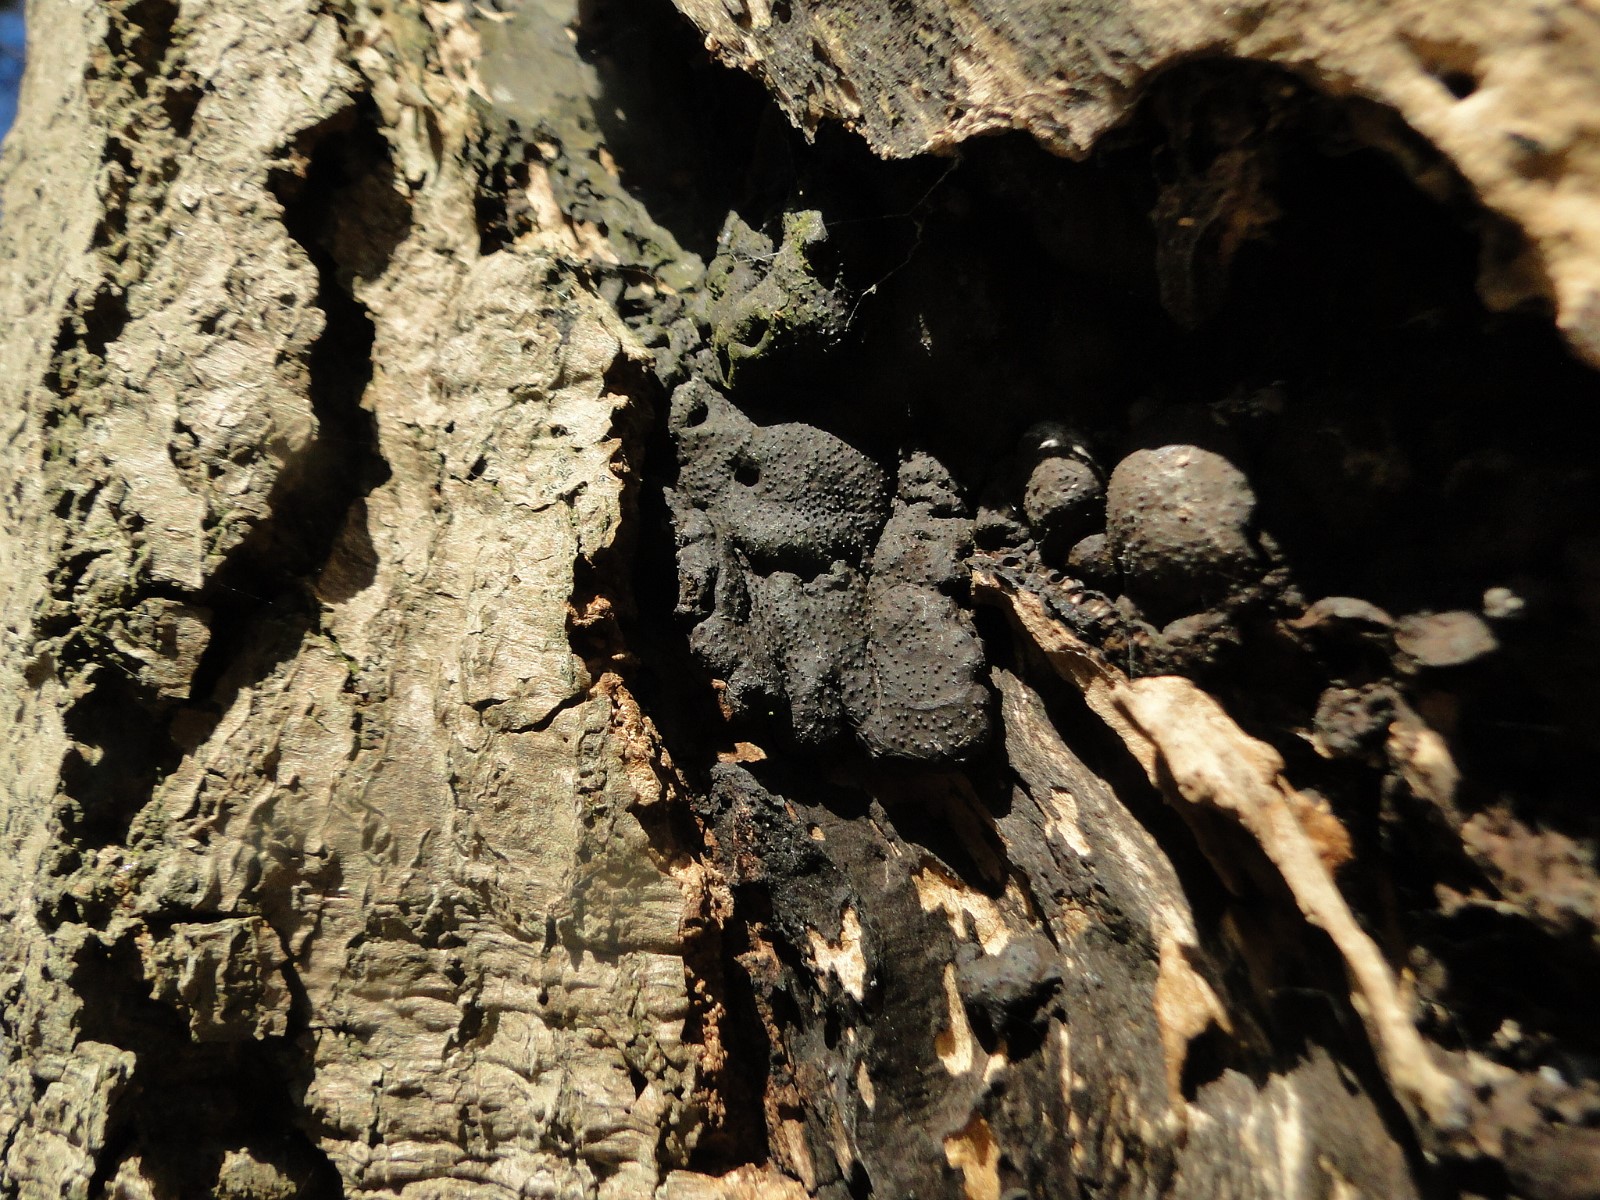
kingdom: Fungi
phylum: Ascomycota
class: Sordariomycetes
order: Xylariales
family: Xylariaceae
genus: Kretzschmaria
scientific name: Kretzschmaria deusta
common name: stor kulsvamp
